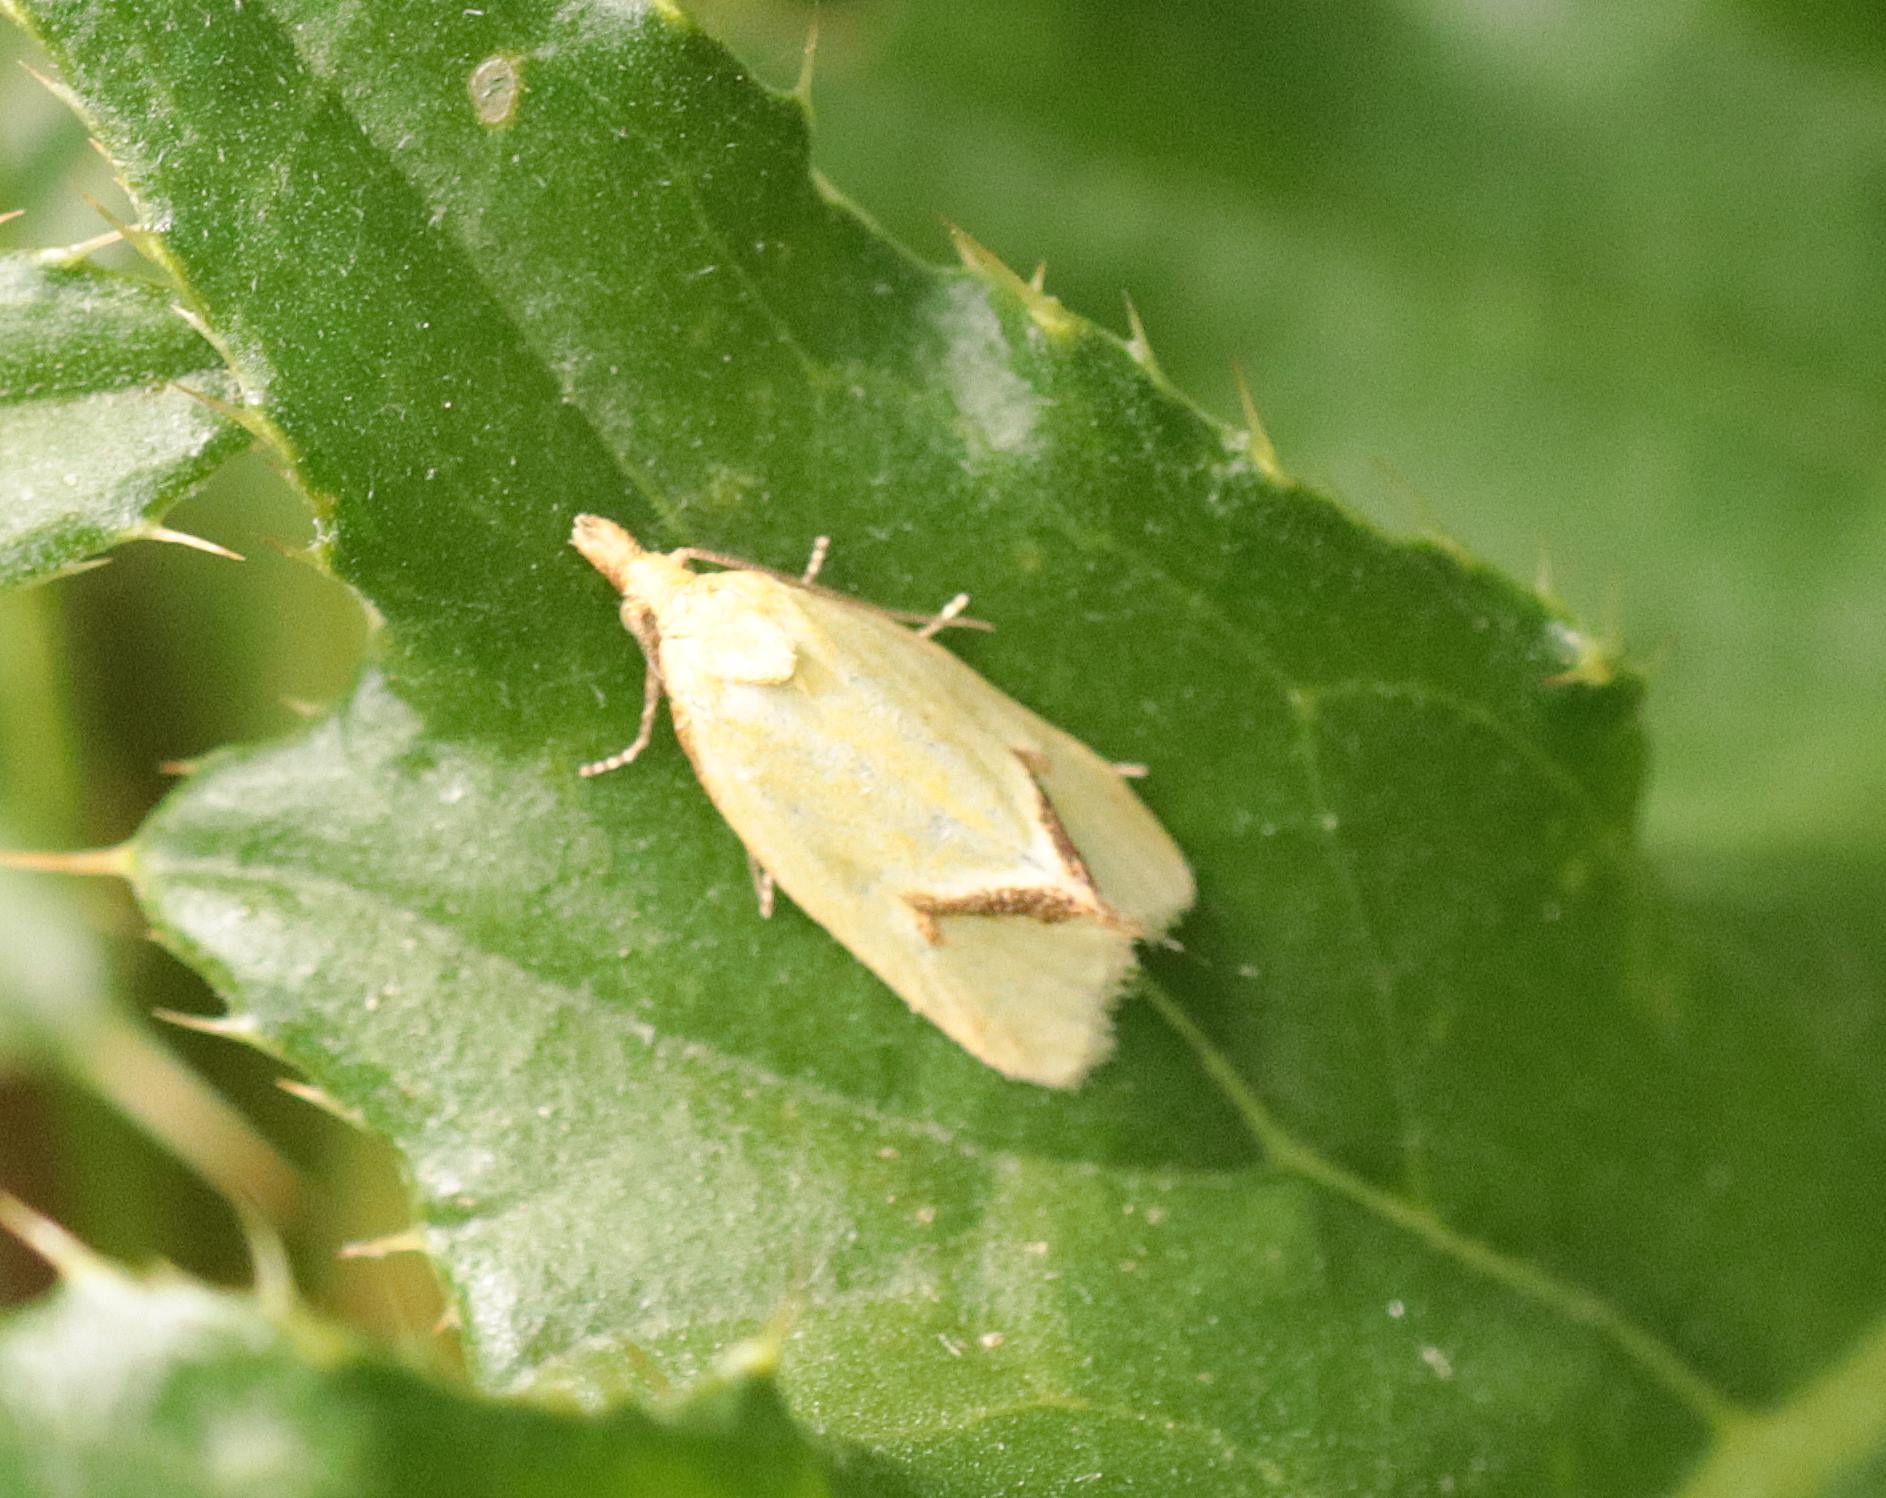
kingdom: Animalia
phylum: Arthropoda
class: Insecta
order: Lepidoptera
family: Tortricidae
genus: Agapeta
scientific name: Agapeta hamana
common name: Tidselgulvikler
